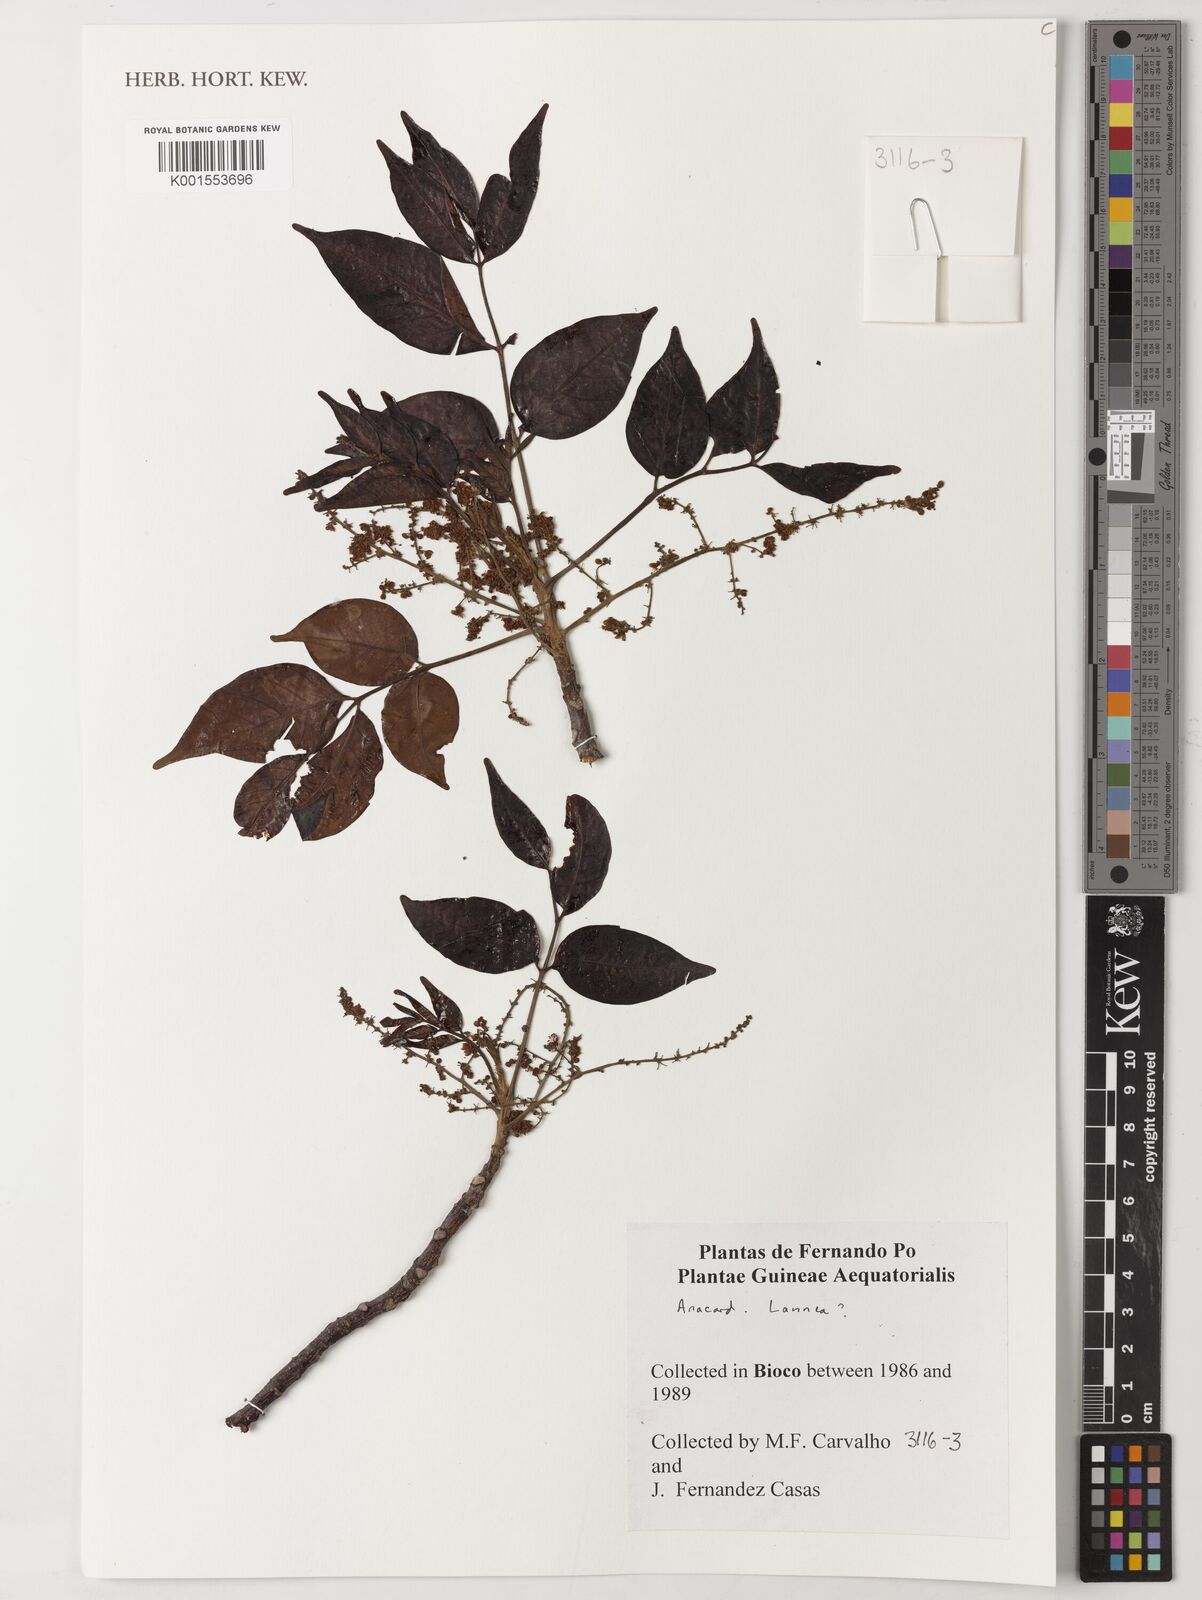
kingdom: Plantae
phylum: Tracheophyta
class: Magnoliopsida
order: Sapindales
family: Anacardiaceae
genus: Lannea
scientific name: Lannea
